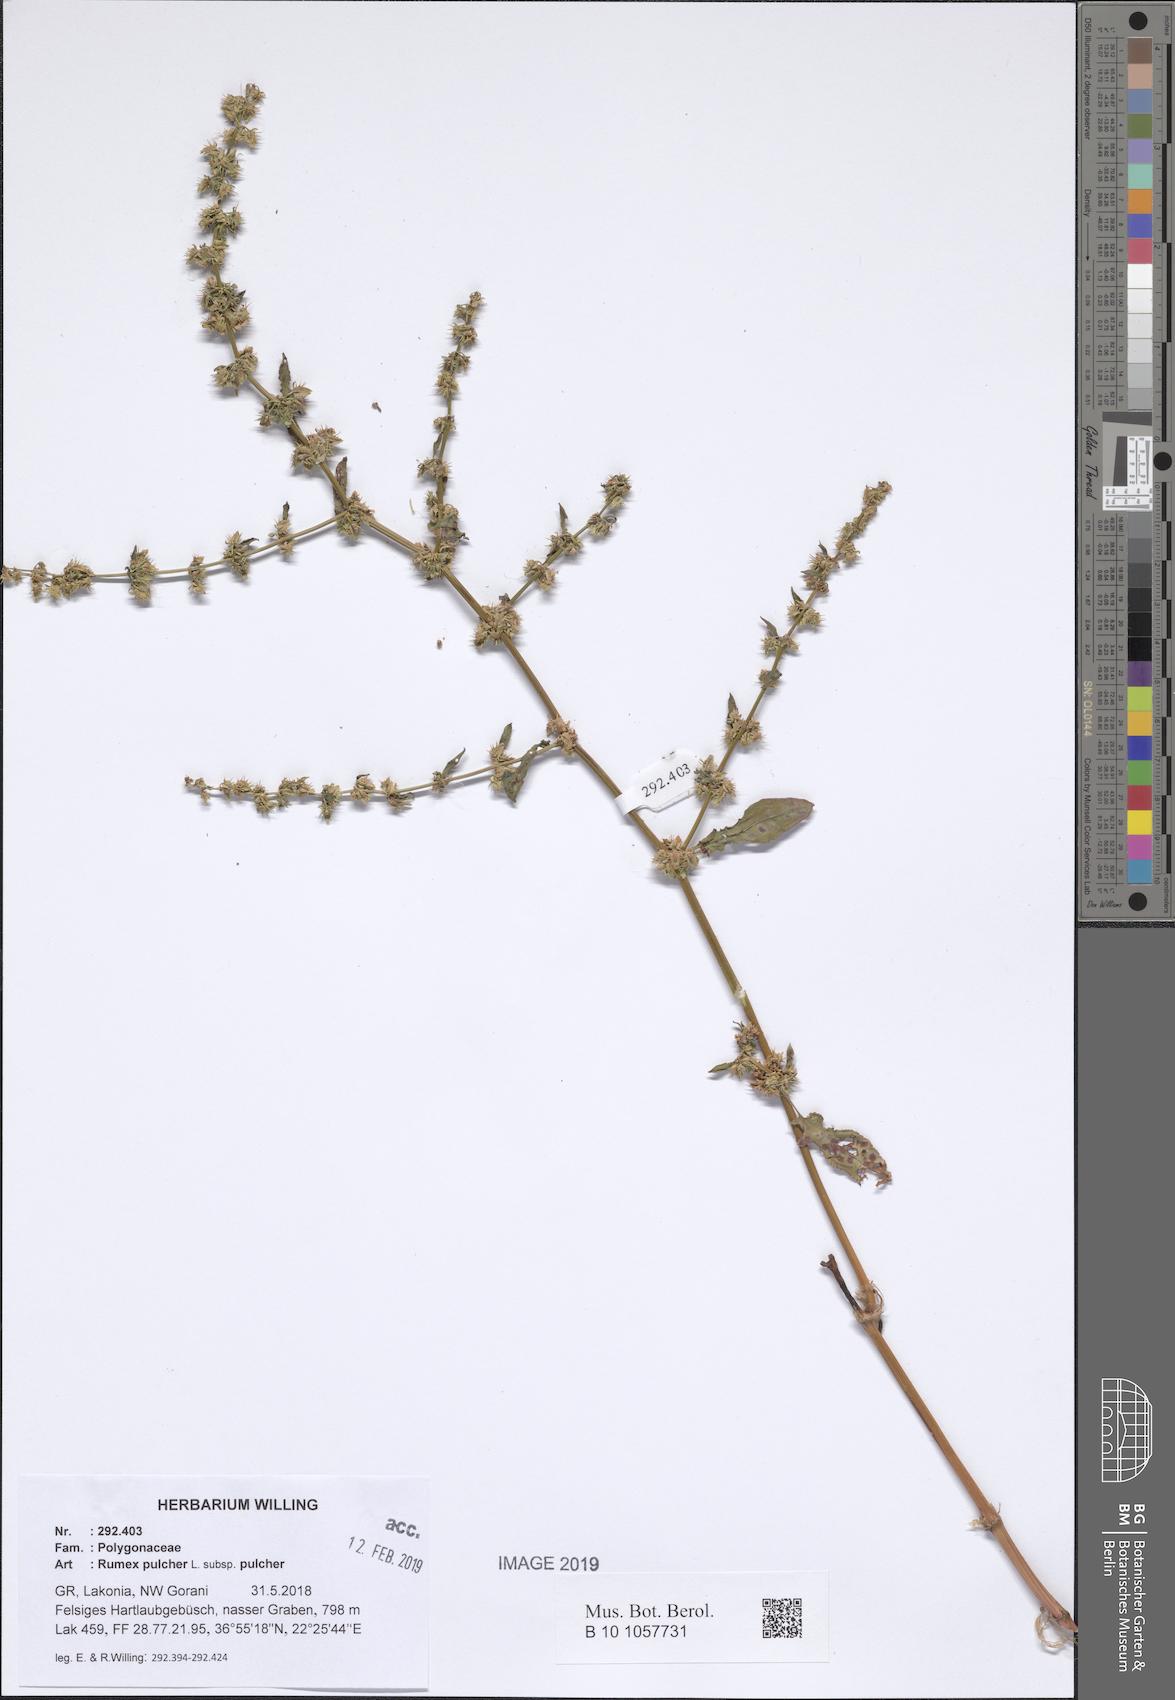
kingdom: Plantae
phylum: Tracheophyta
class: Magnoliopsida
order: Caryophyllales
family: Polygonaceae
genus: Rumex
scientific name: Rumex pulcher
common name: Fiddle dock
